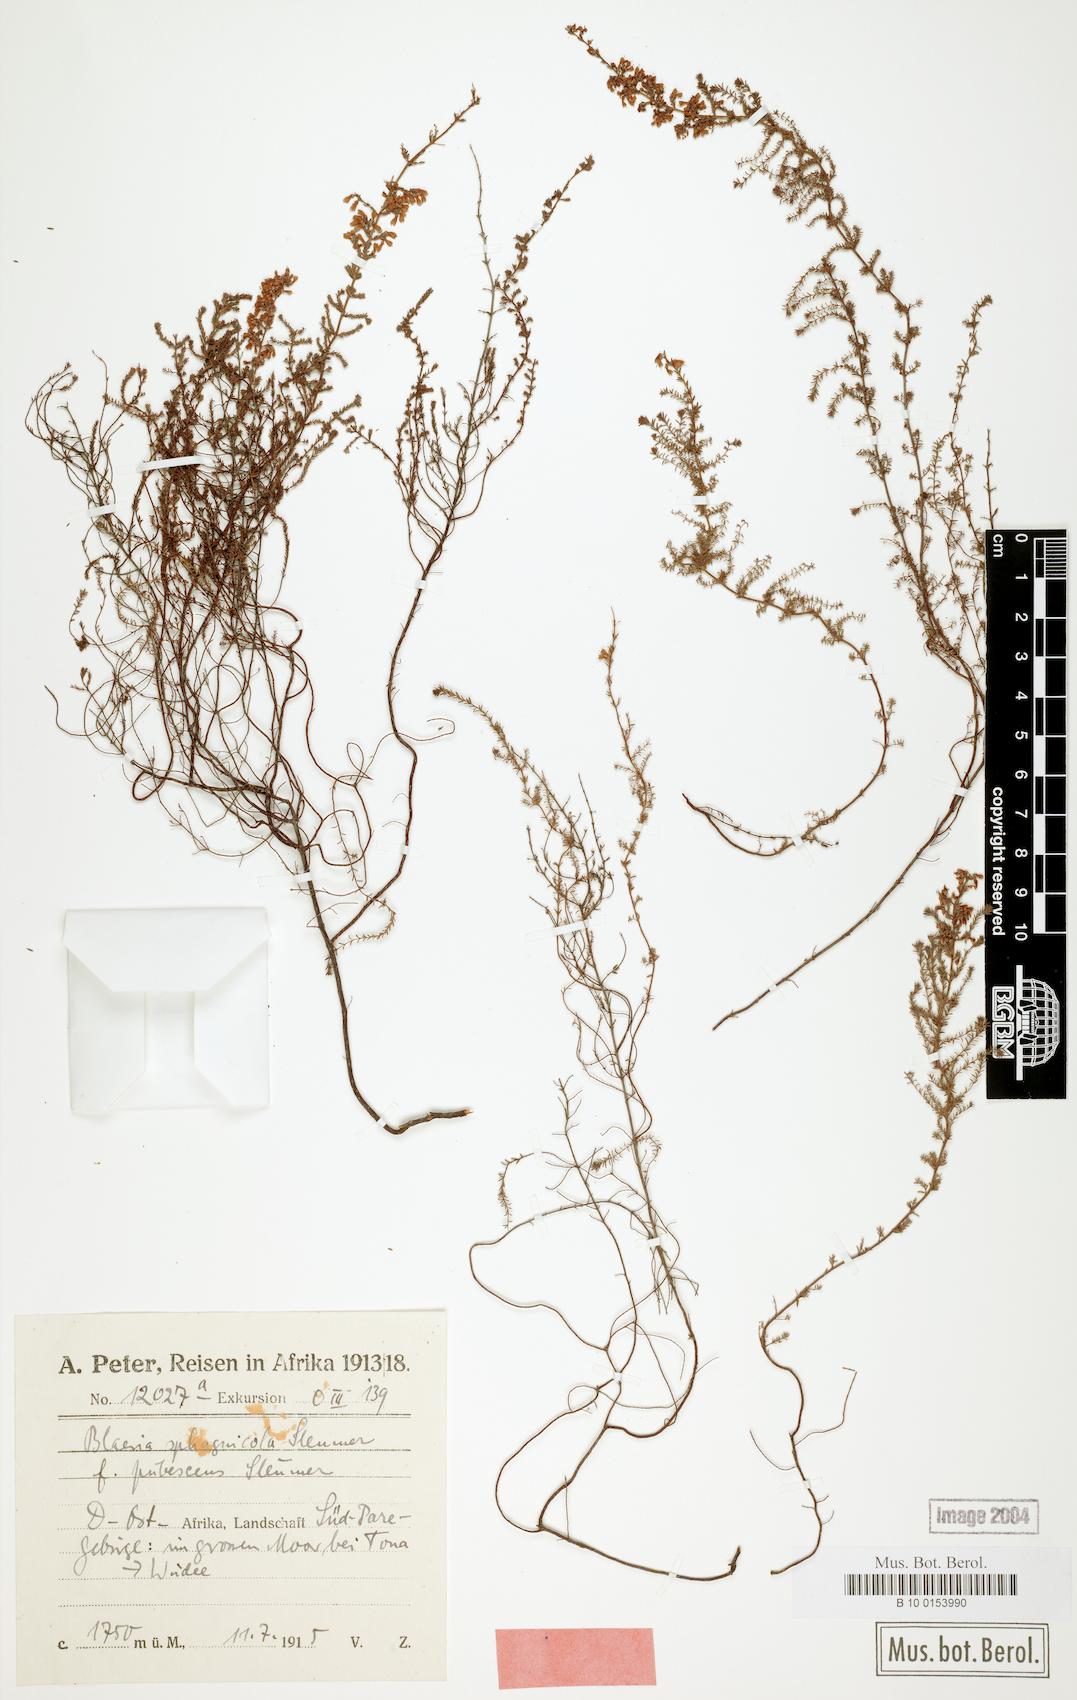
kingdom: Plantae
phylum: Tracheophyta
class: Magnoliopsida
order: Ericales
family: Ericaceae
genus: Erica
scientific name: Erica silvatica
